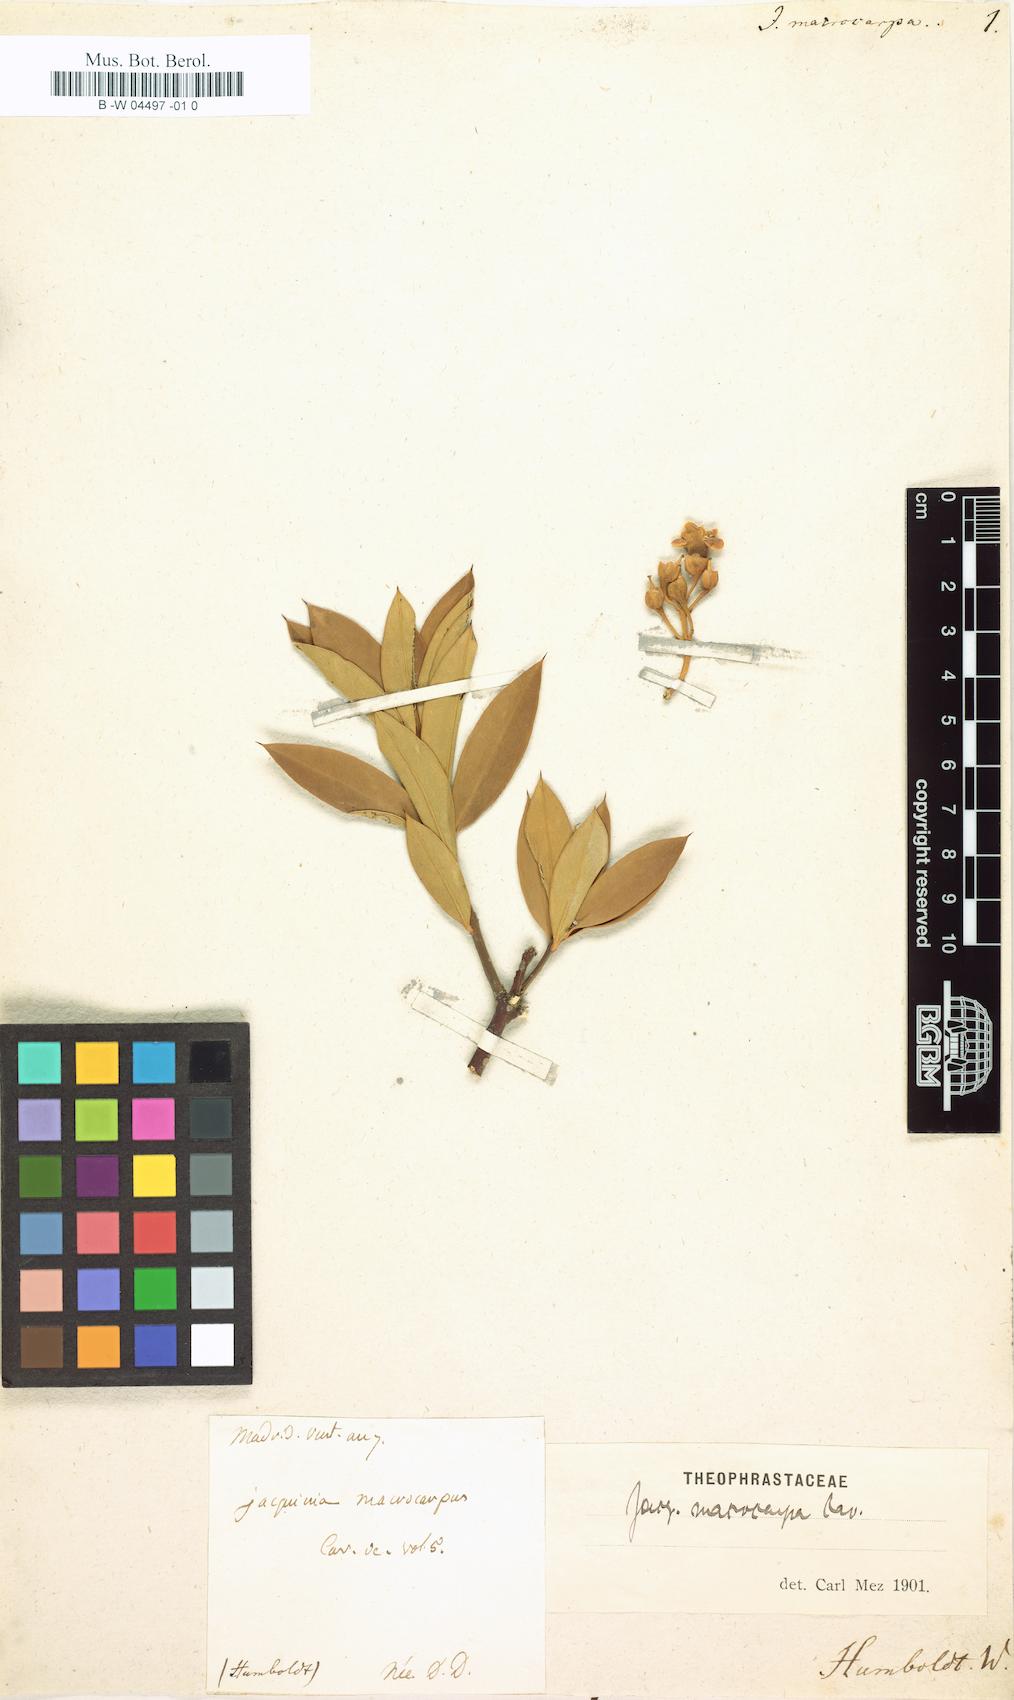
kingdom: Plantae
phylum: Tracheophyta
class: Magnoliopsida
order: Ericales
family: Primulaceae
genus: Bonellia
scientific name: Bonellia
